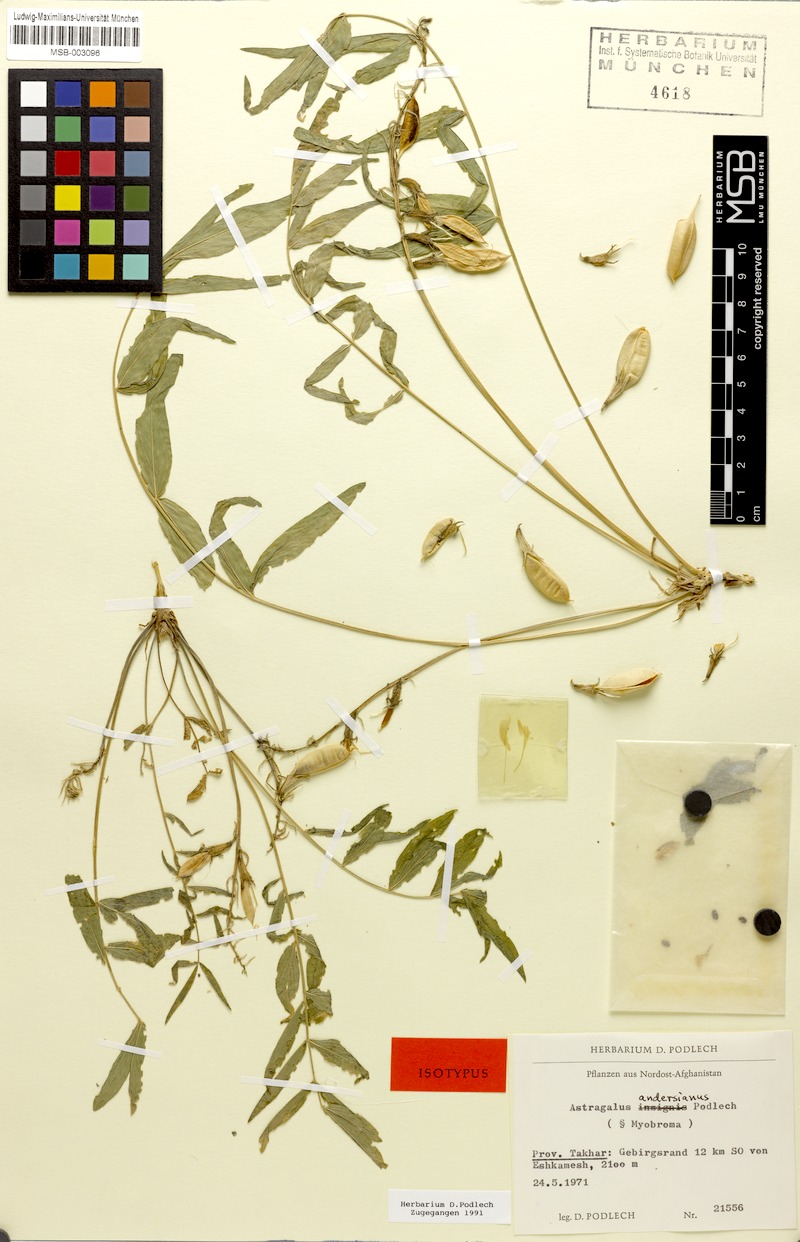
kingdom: Plantae
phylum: Tracheophyta
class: Magnoliopsida
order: Fabales
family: Fabaceae
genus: Astragalus
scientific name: Astragalus andersianus
